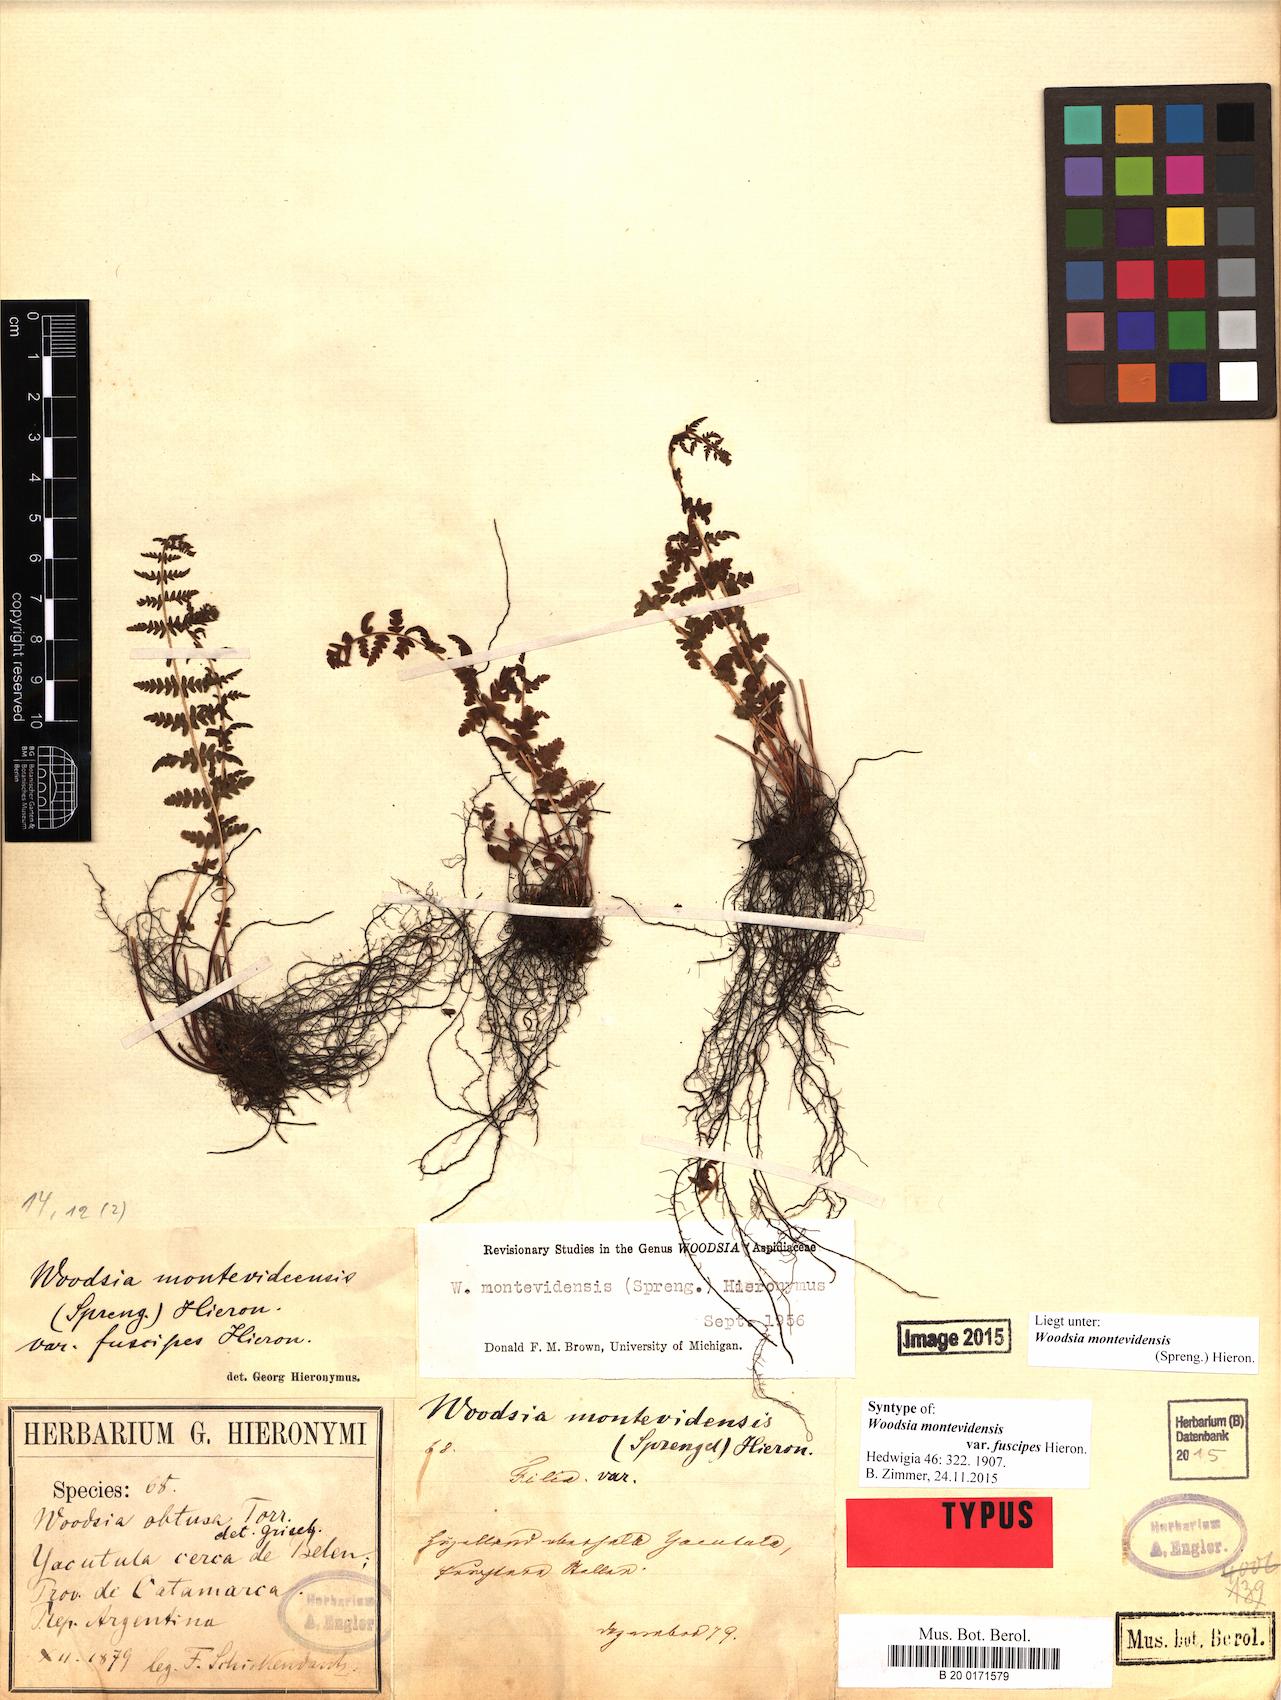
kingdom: Plantae
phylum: Tracheophyta
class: Polypodiopsida
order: Polypodiales
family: Woodsiaceae
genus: Physematium
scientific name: Physematium montevidense
